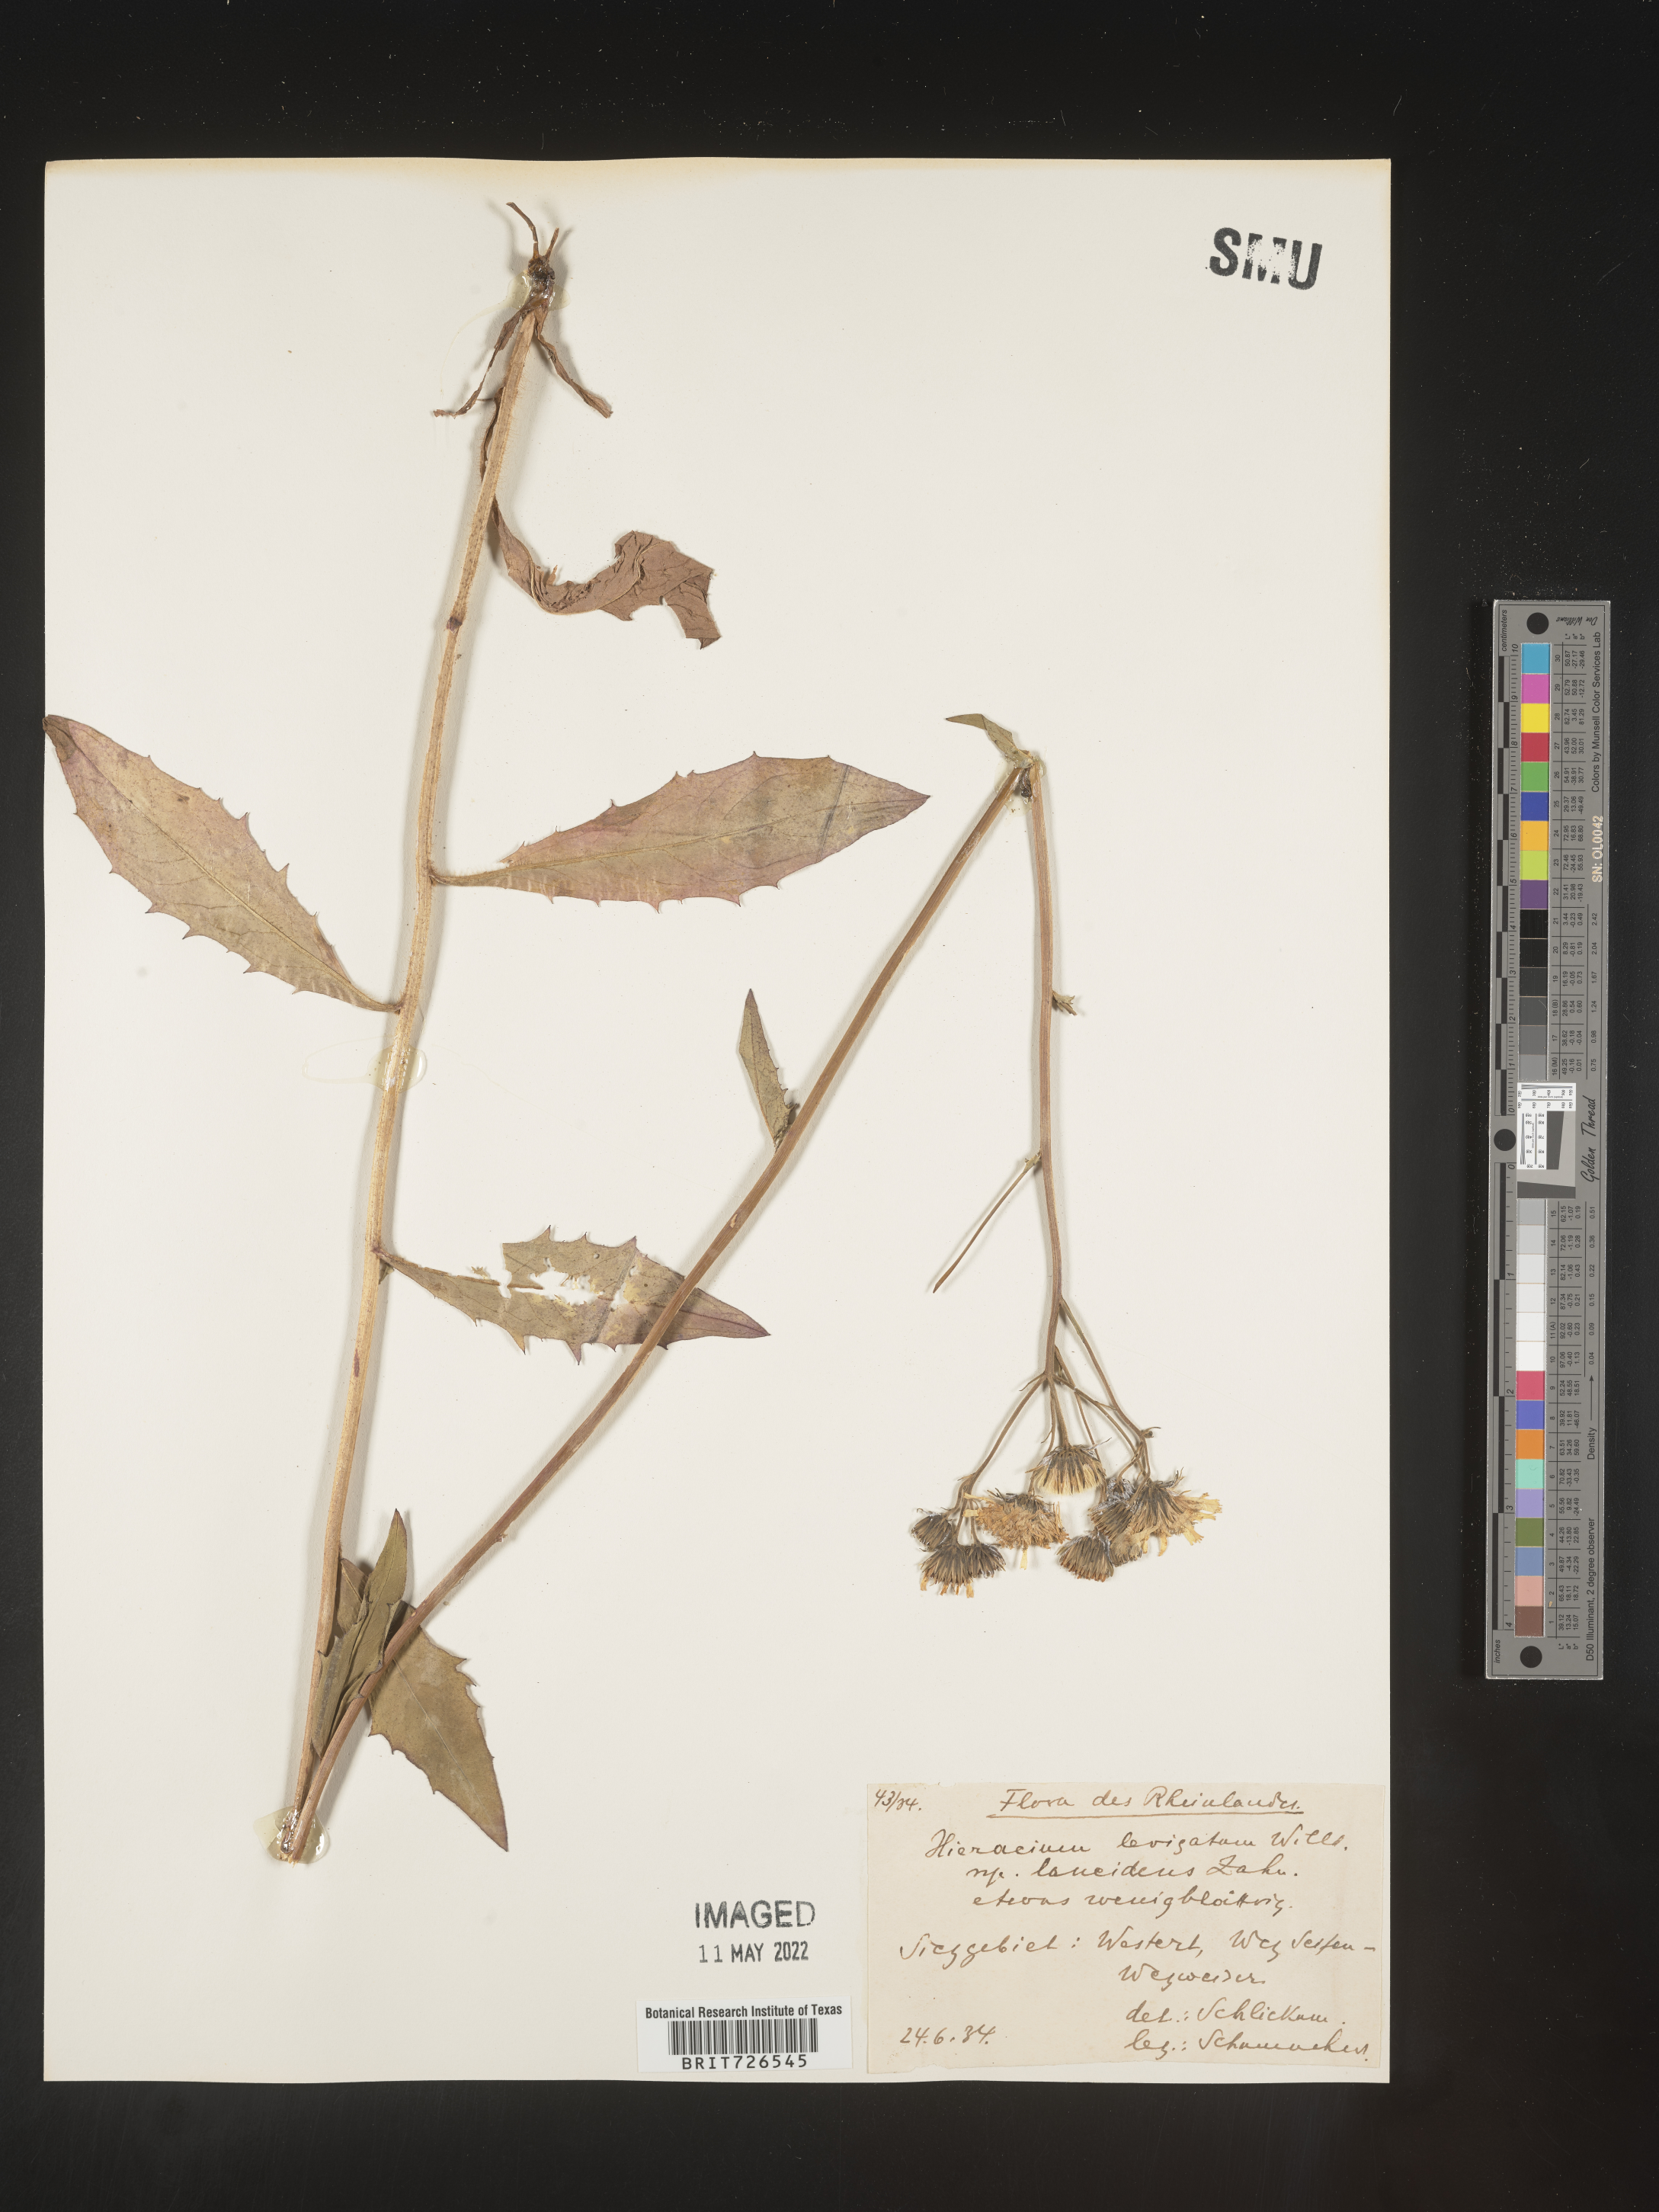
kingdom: Plantae
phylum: Tracheophyta
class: Magnoliopsida
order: Asterales
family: Asteraceae
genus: Hieracium
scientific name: Hieracium
